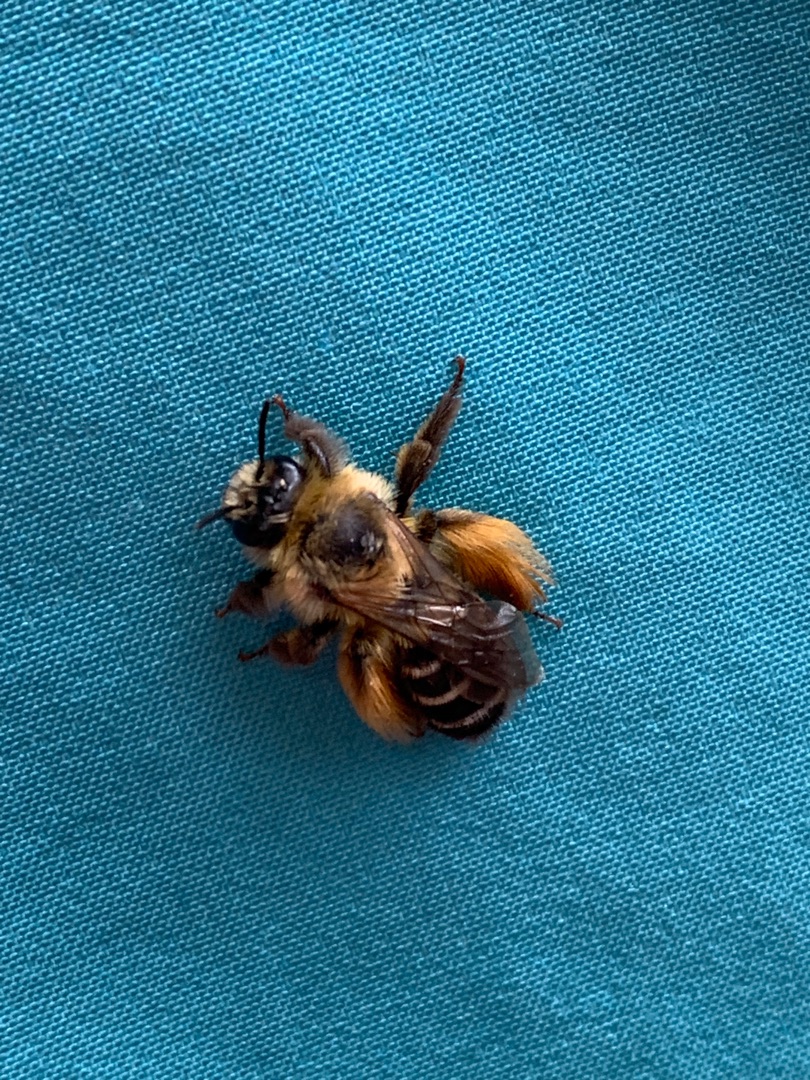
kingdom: Animalia
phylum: Arthropoda
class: Insecta
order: Hymenoptera
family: Melittidae
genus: Dasypoda
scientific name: Dasypoda hirtipes
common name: Pragtbuksebi
